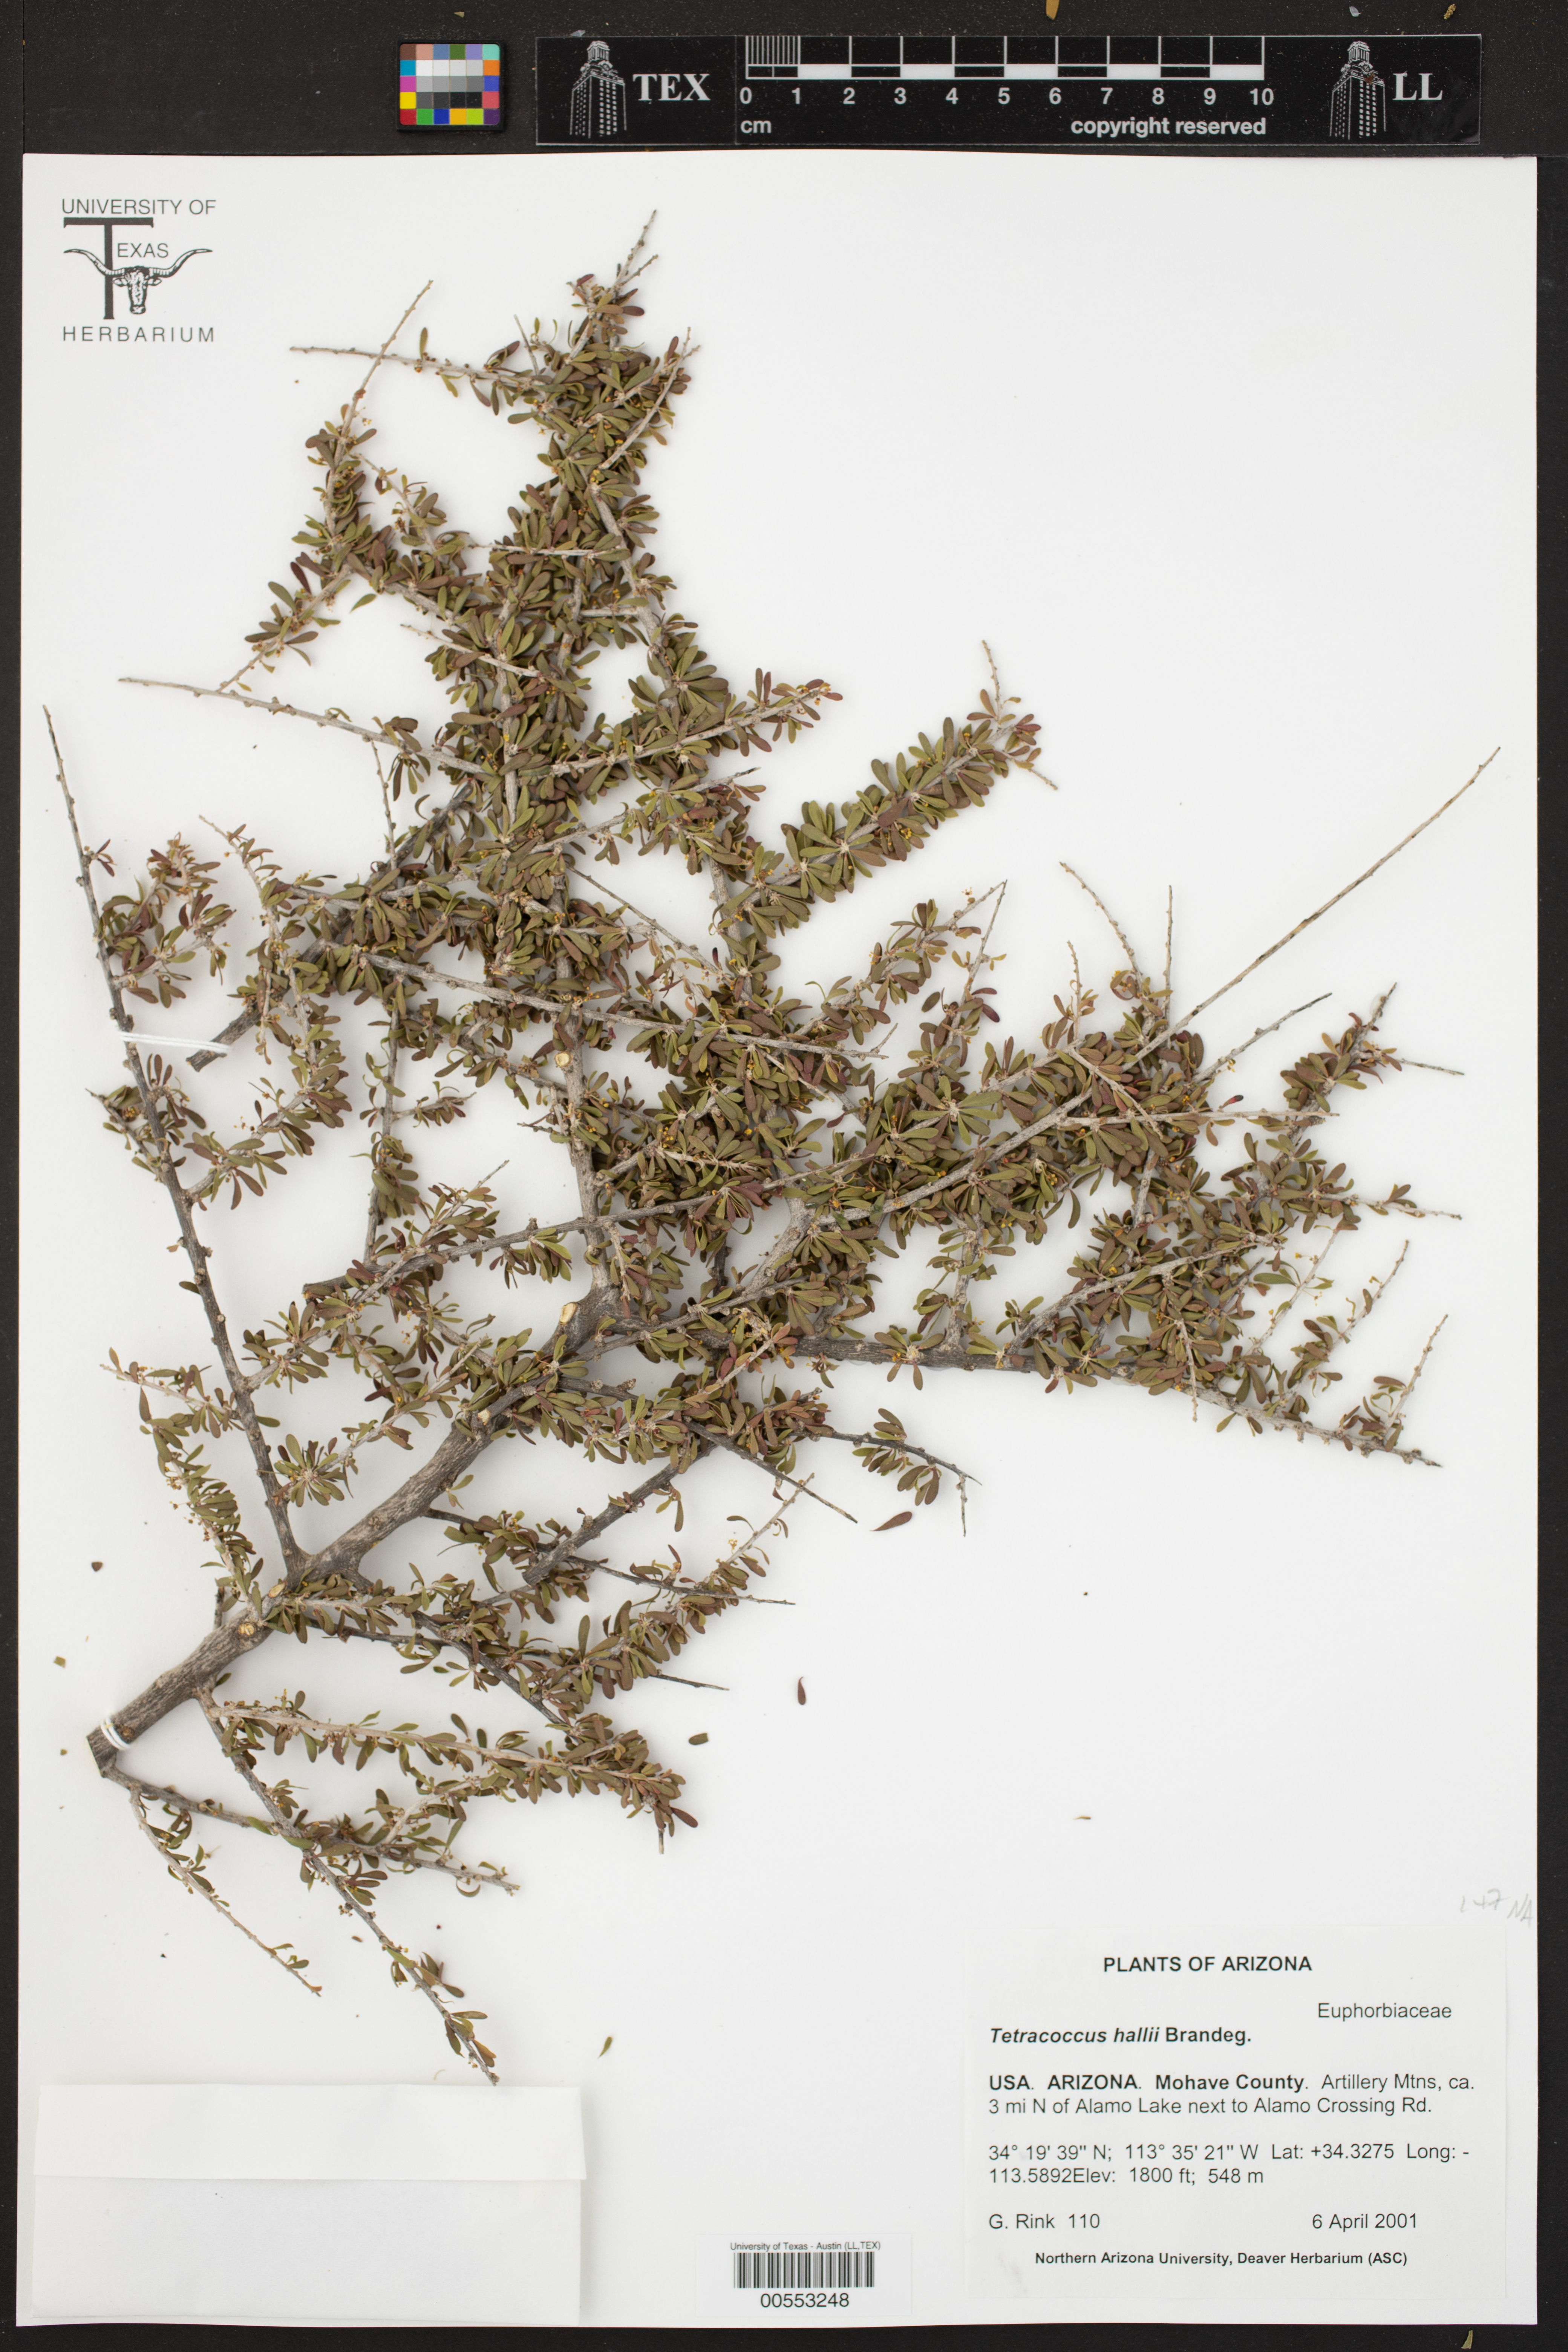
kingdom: Plantae
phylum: Tracheophyta
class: Magnoliopsida
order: Malpighiales
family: Picrodendraceae
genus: Tetracoccus
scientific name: Tetracoccus hallii
